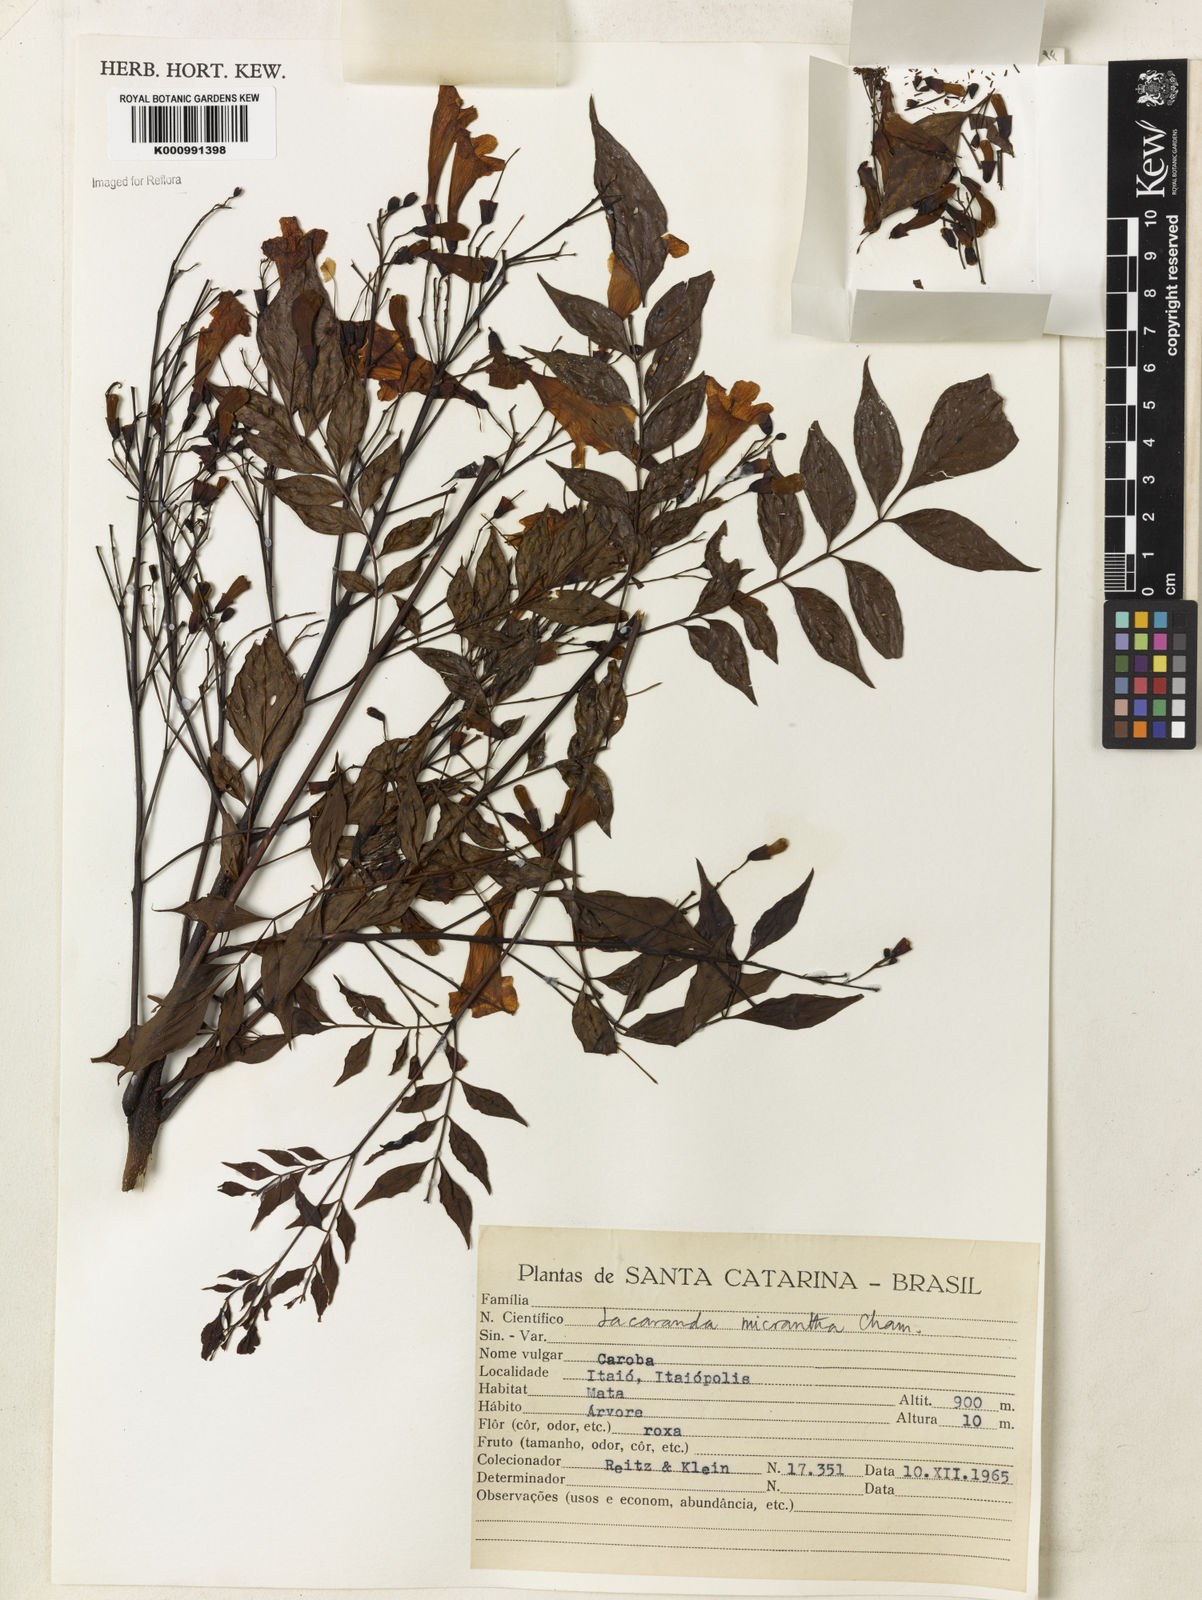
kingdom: Plantae
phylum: Tracheophyta
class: Magnoliopsida
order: Lamiales
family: Bignoniaceae
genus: Jacaranda
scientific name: Jacaranda micrantha
